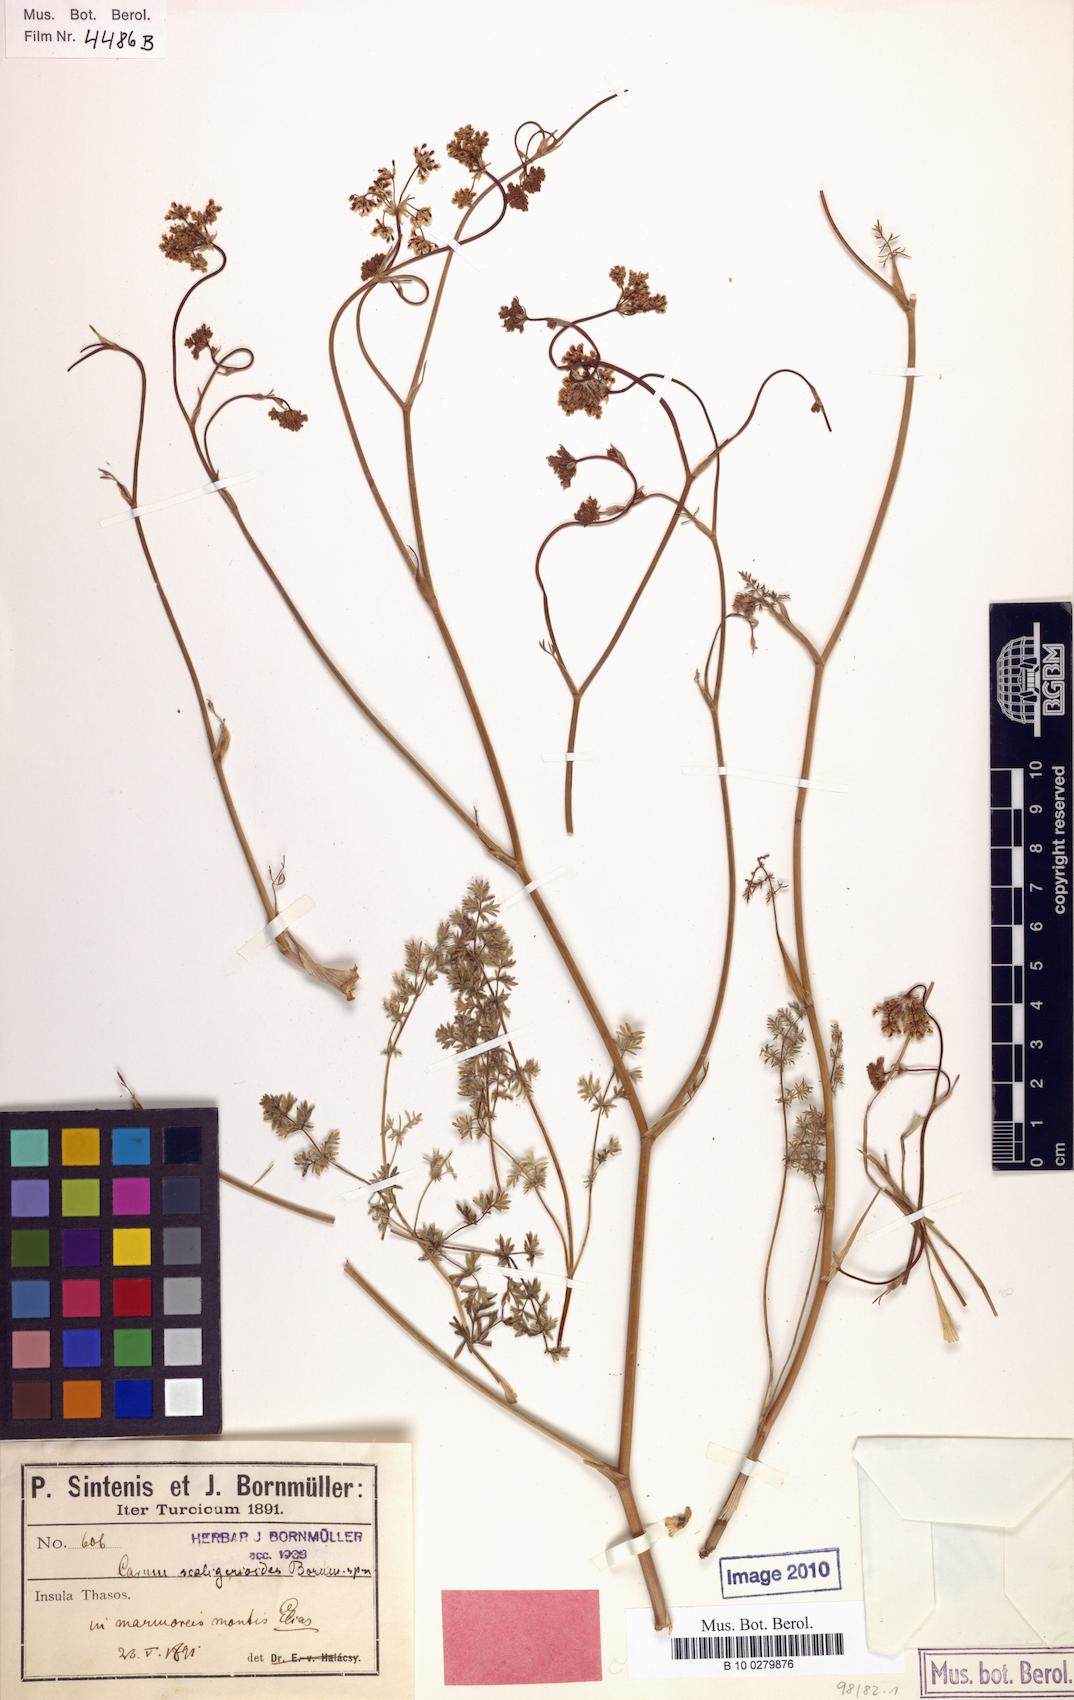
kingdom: Plantae
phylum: Tracheophyta
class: Magnoliopsida
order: Apiales
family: Apiaceae
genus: Hellenocarum
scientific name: Hellenocarum strictum
